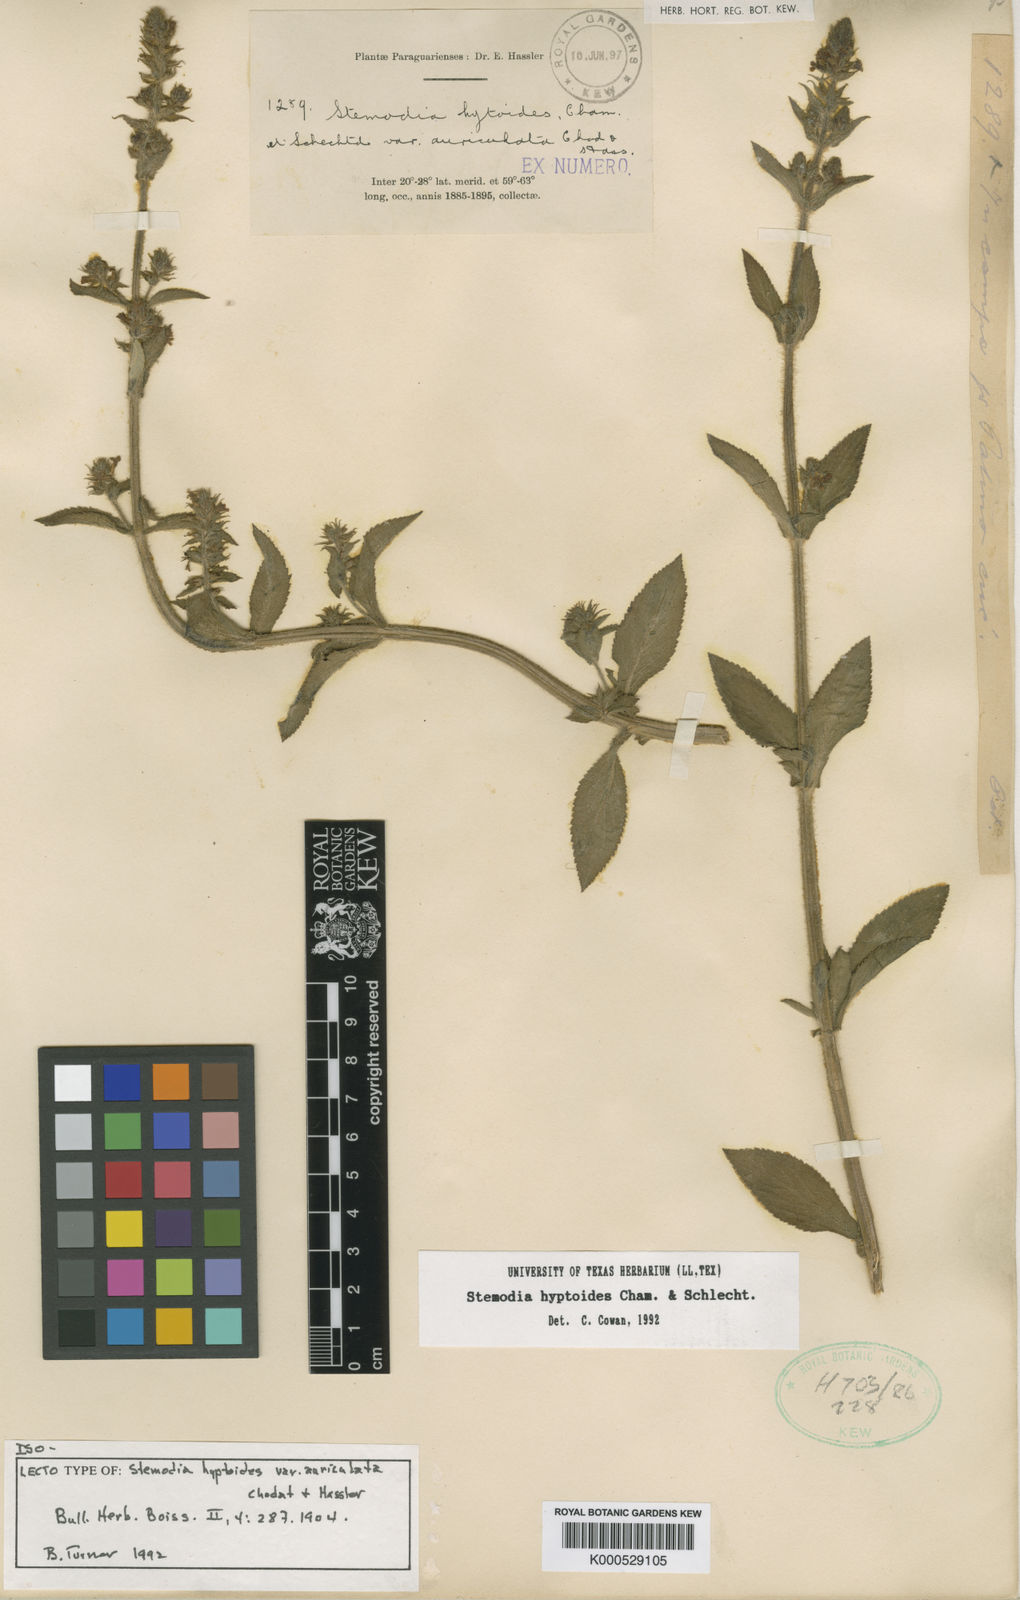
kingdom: Plantae
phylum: Tracheophyta
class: Magnoliopsida
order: Lamiales
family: Plantaginaceae
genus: Stemodia
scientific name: Stemodia hyptoides
